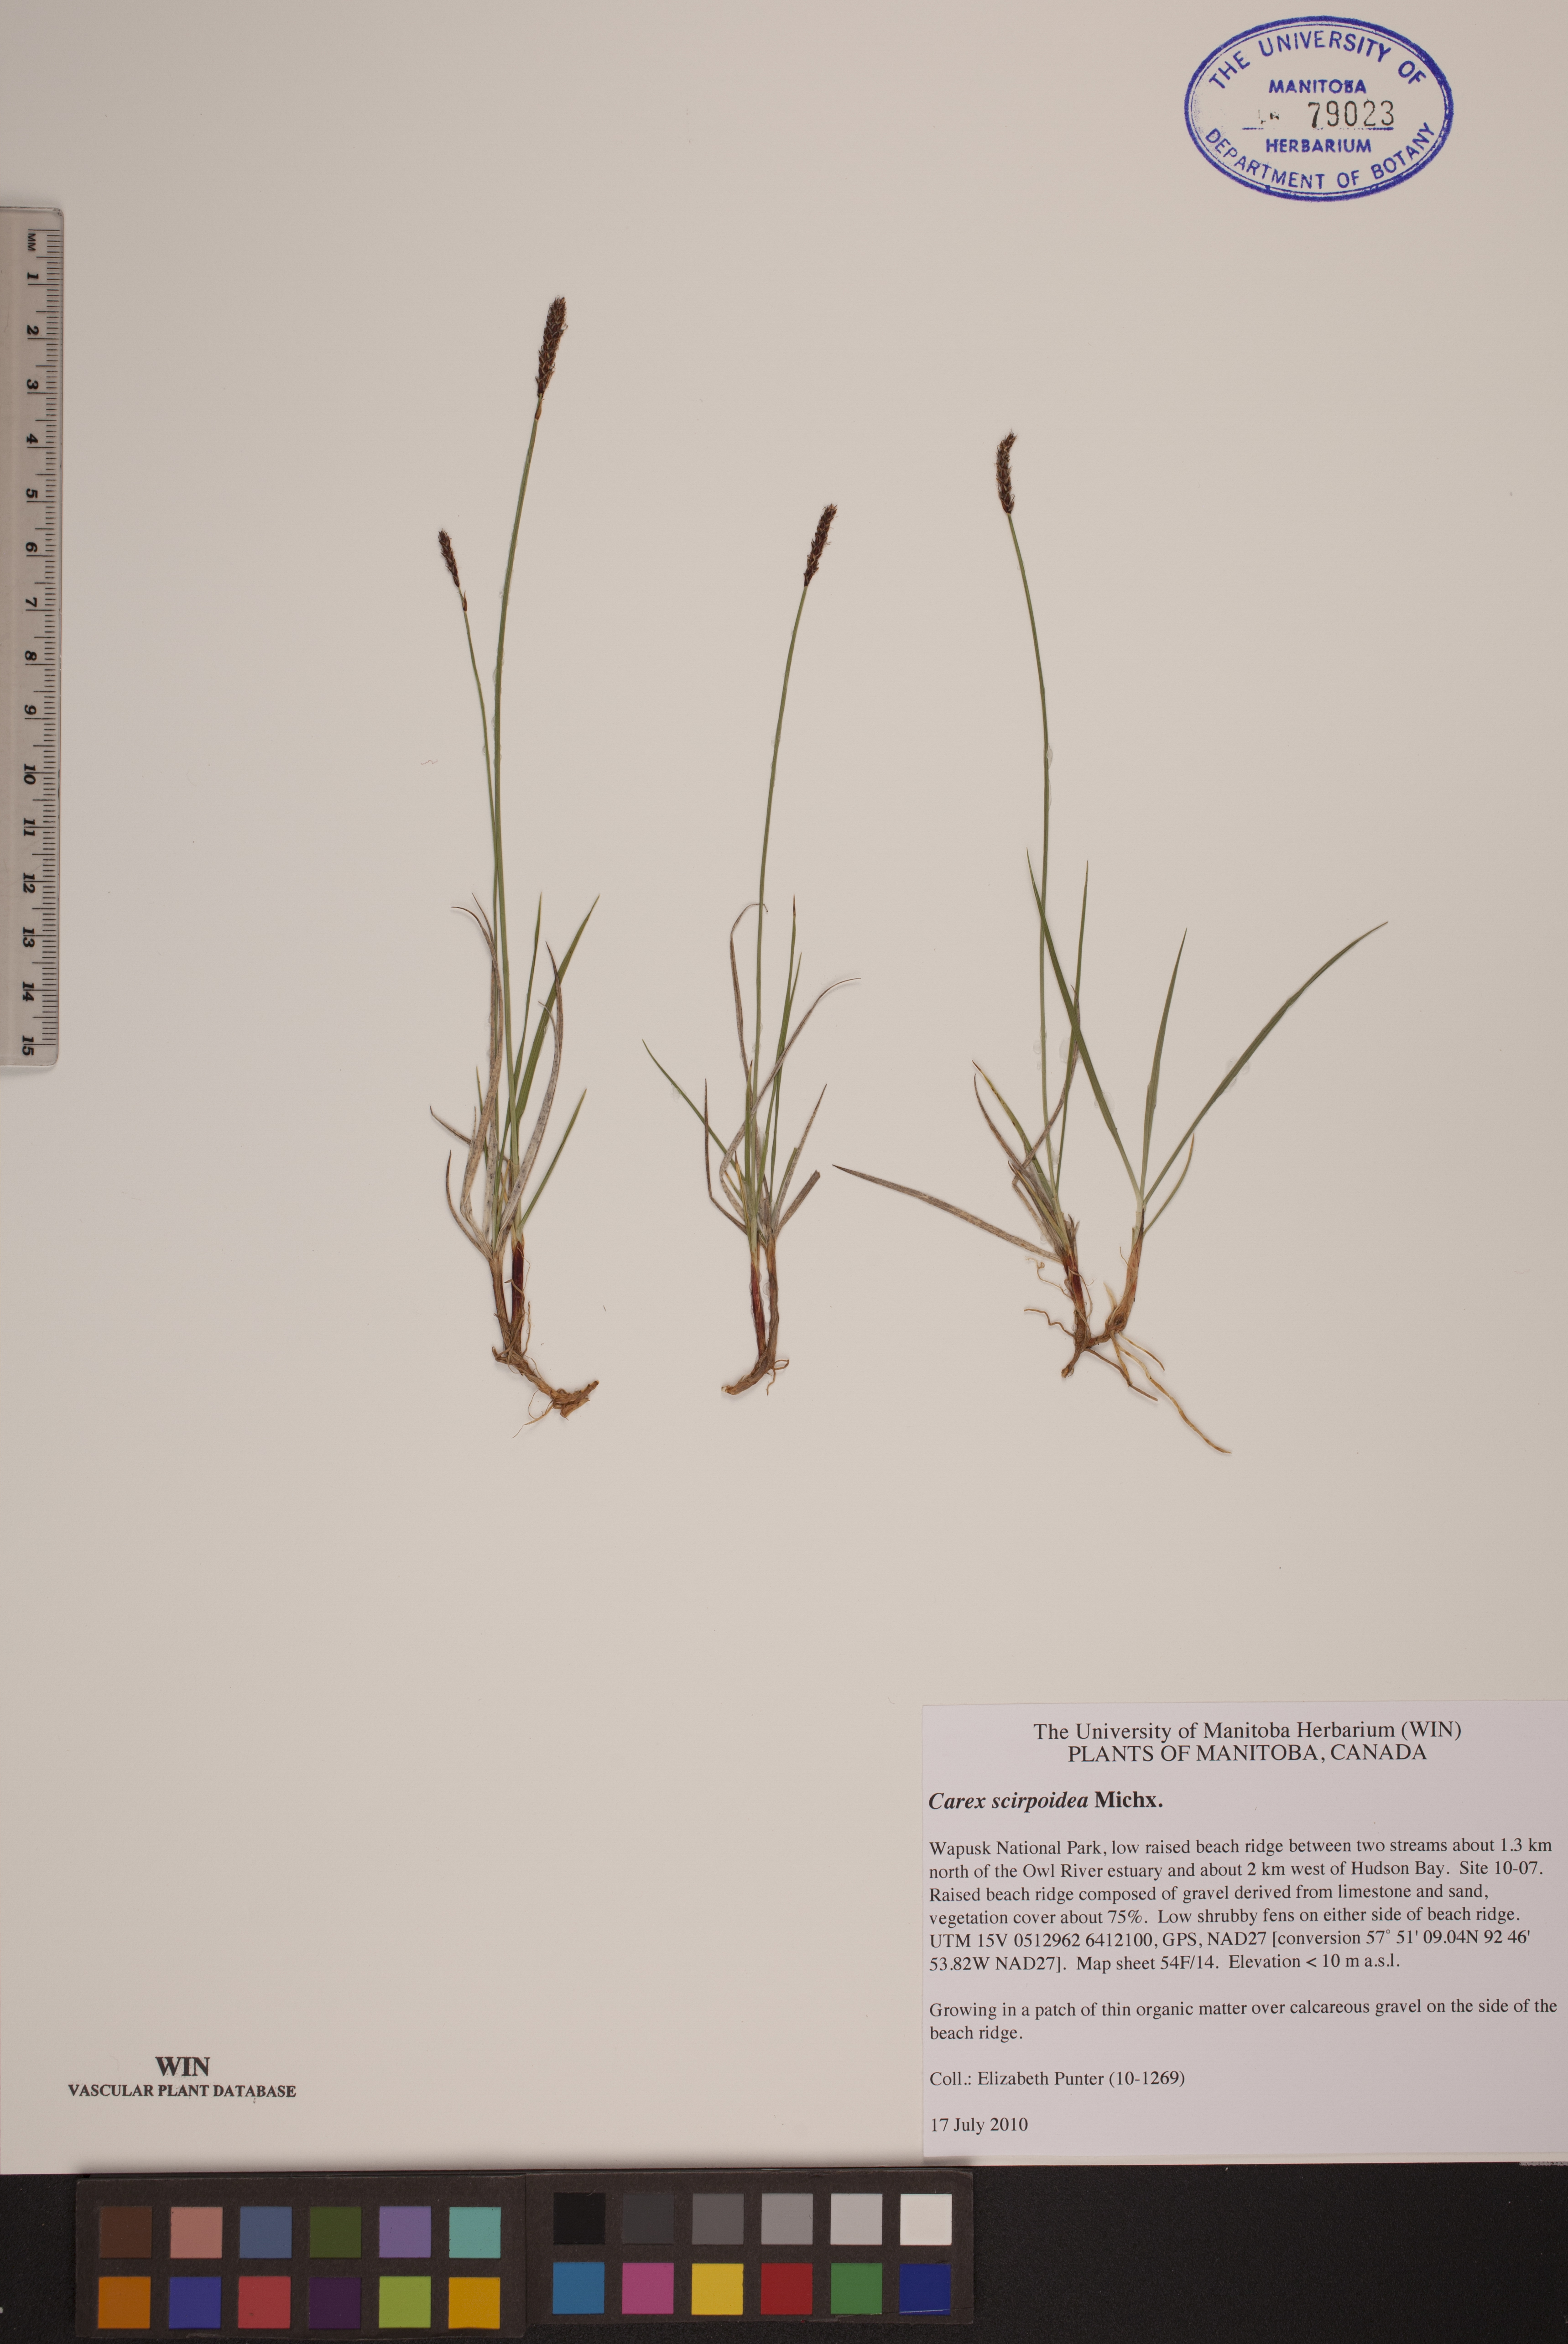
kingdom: Plantae
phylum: Tracheophyta
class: Liliopsida
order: Poales
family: Cyperaceae
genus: Carex
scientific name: Carex scirpoidea
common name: Canada single-spike sedge
